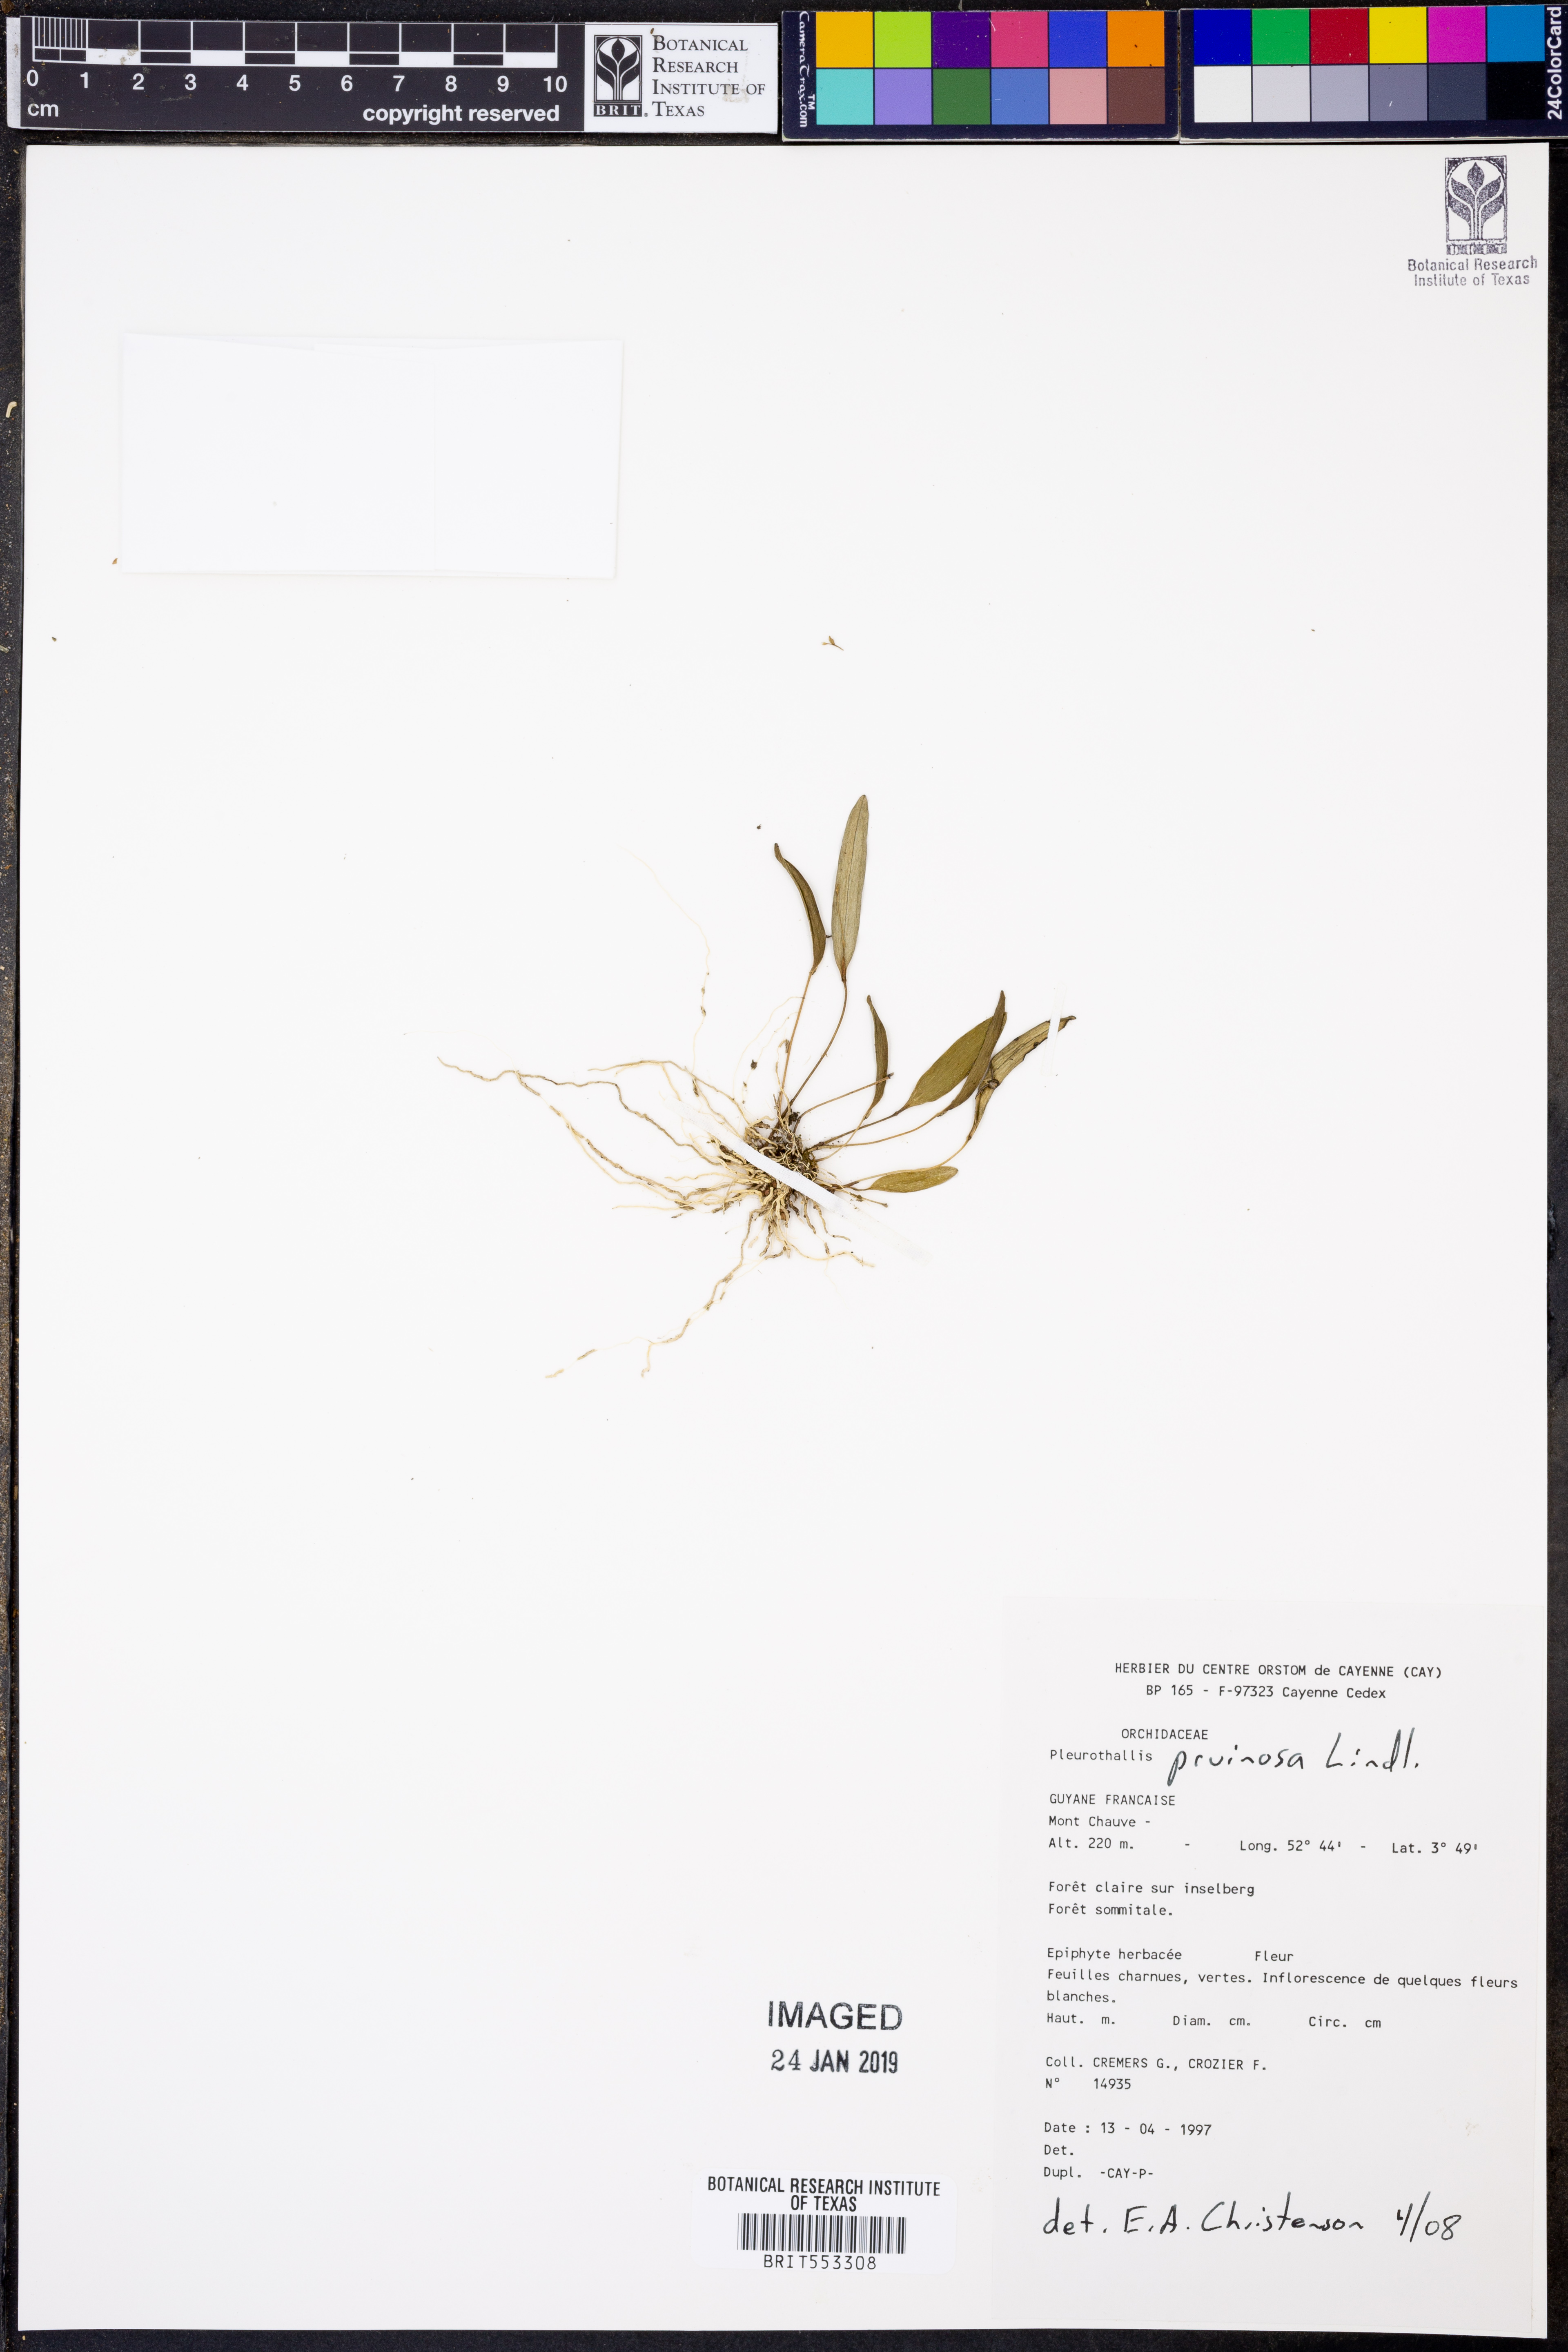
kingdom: Plantae
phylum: Tracheophyta
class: Liliopsida
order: Asparagales
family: Orchidaceae
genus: Pleurothallis
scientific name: Pleurothallis pruinosa
